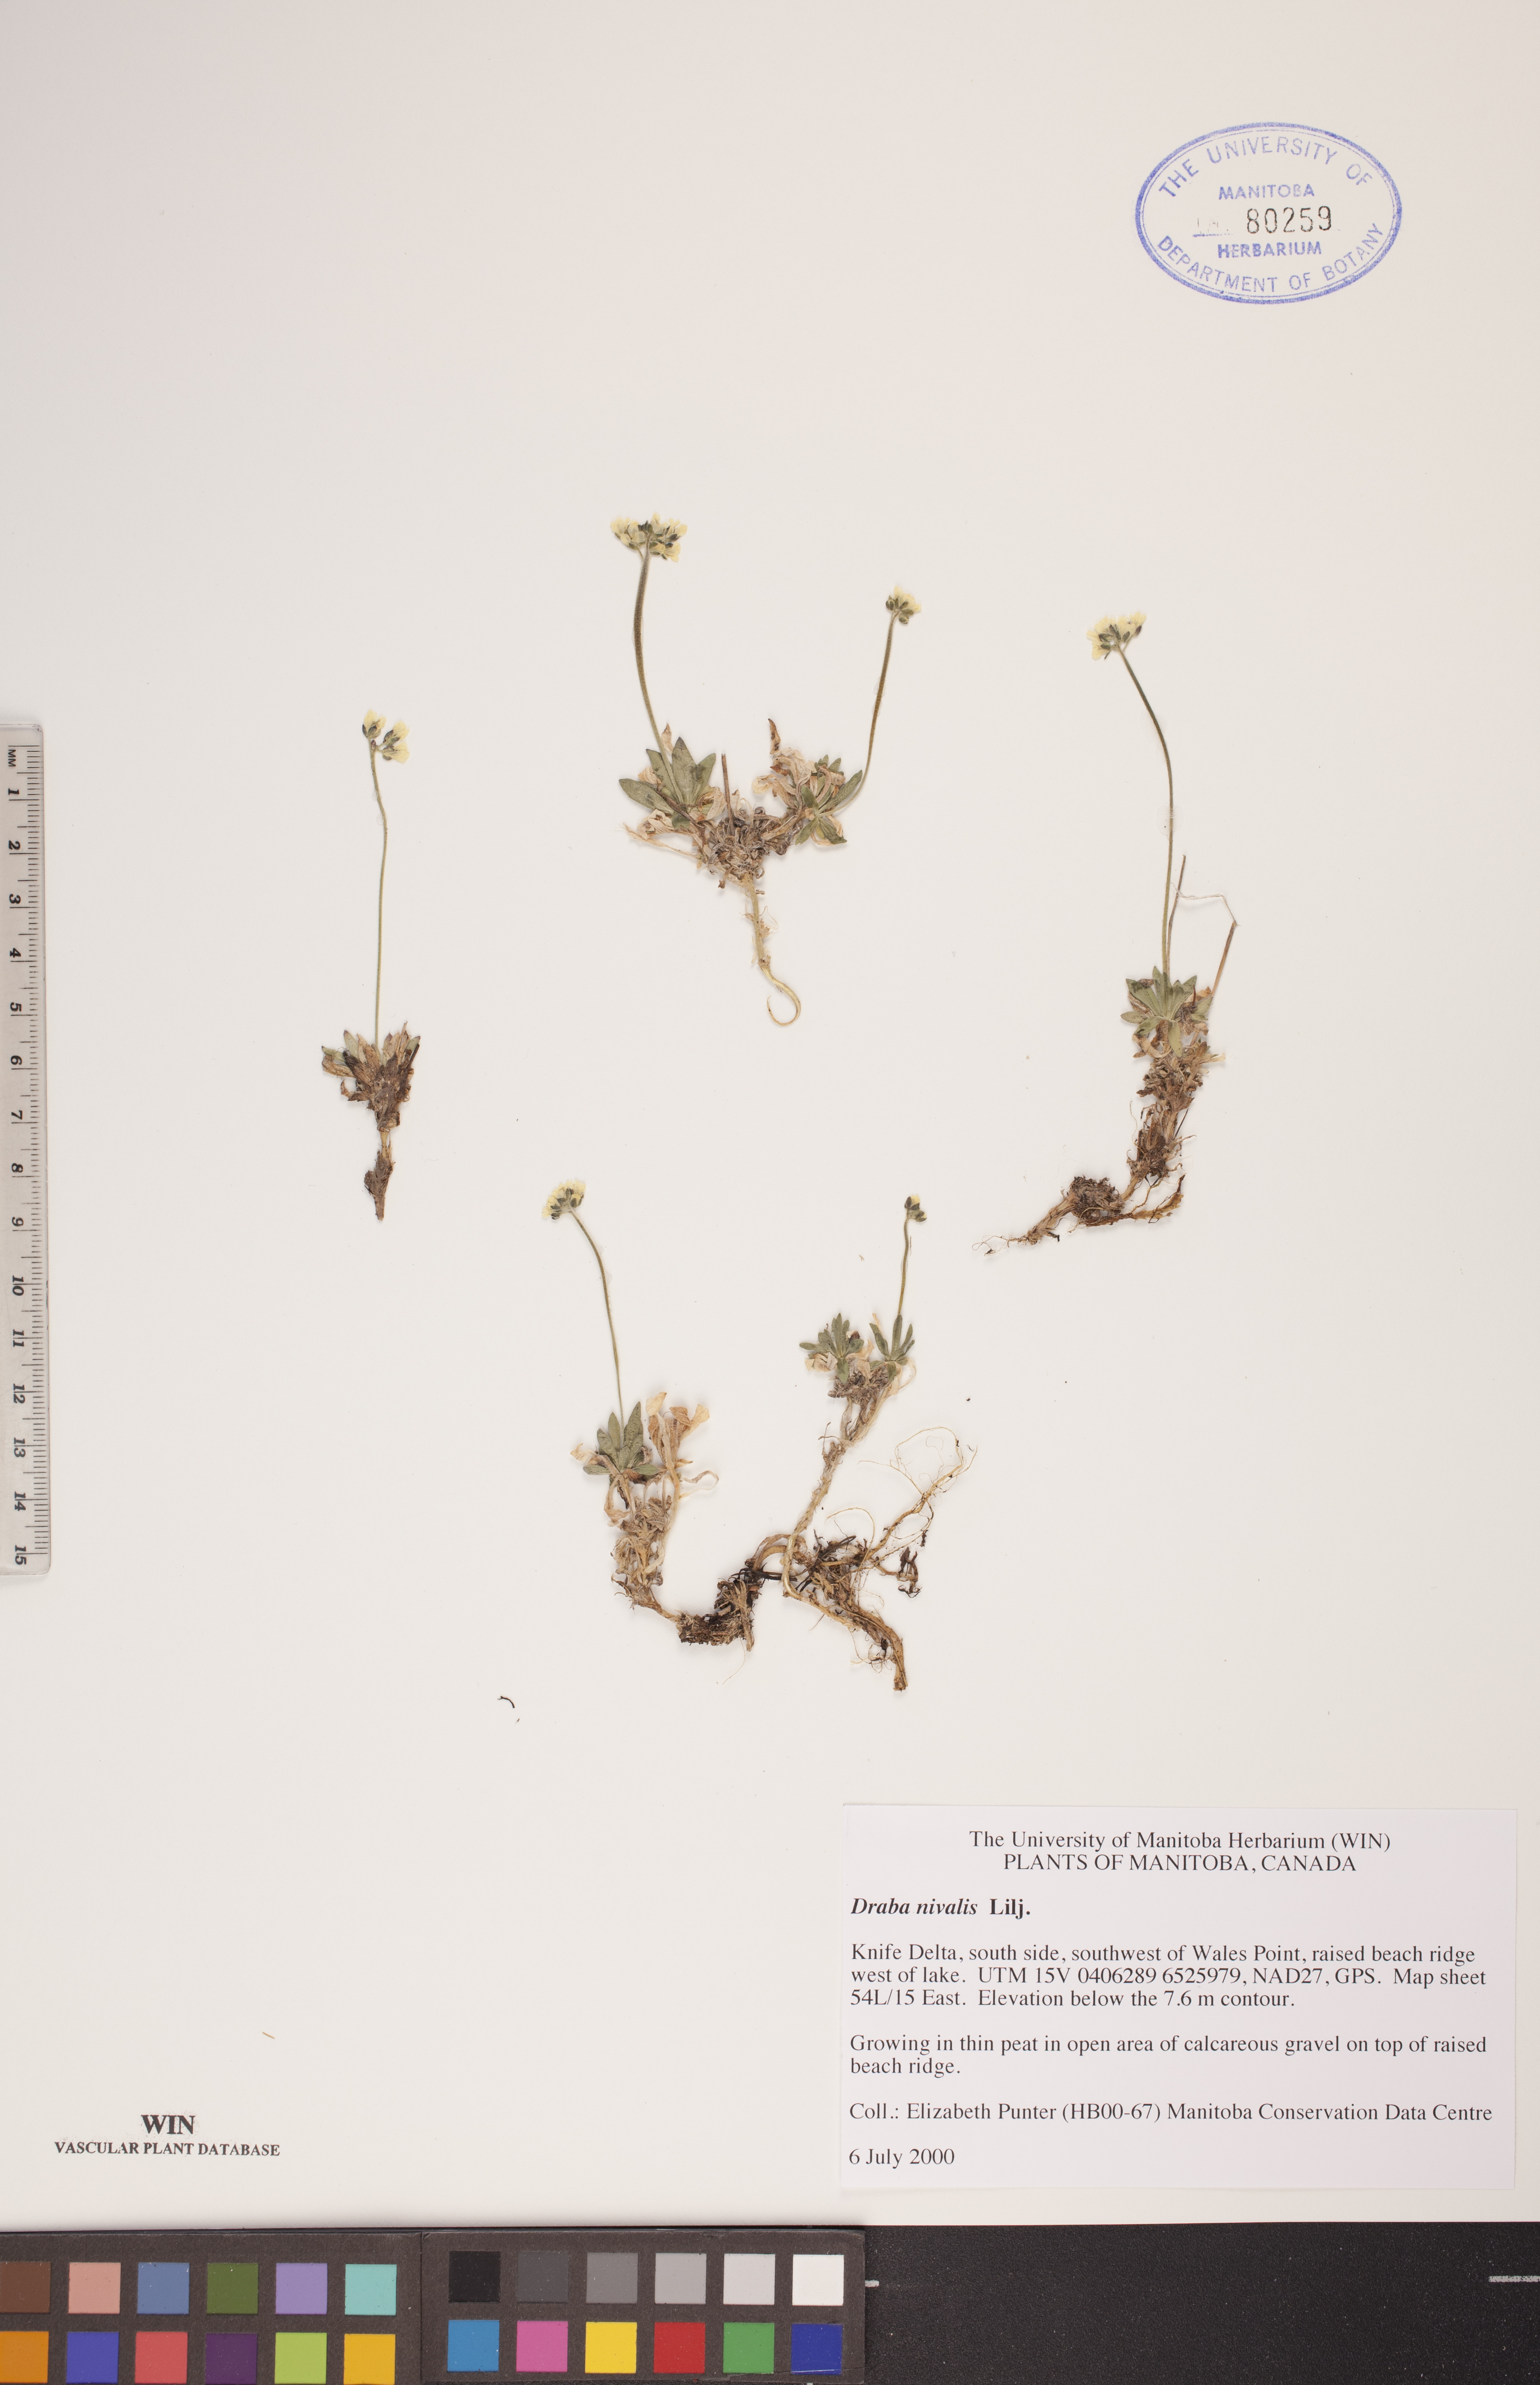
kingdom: Plantae
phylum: Tracheophyta
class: Magnoliopsida
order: Brassicales
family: Brassicaceae
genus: Draba
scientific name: Draba nivalis
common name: Snow draba
